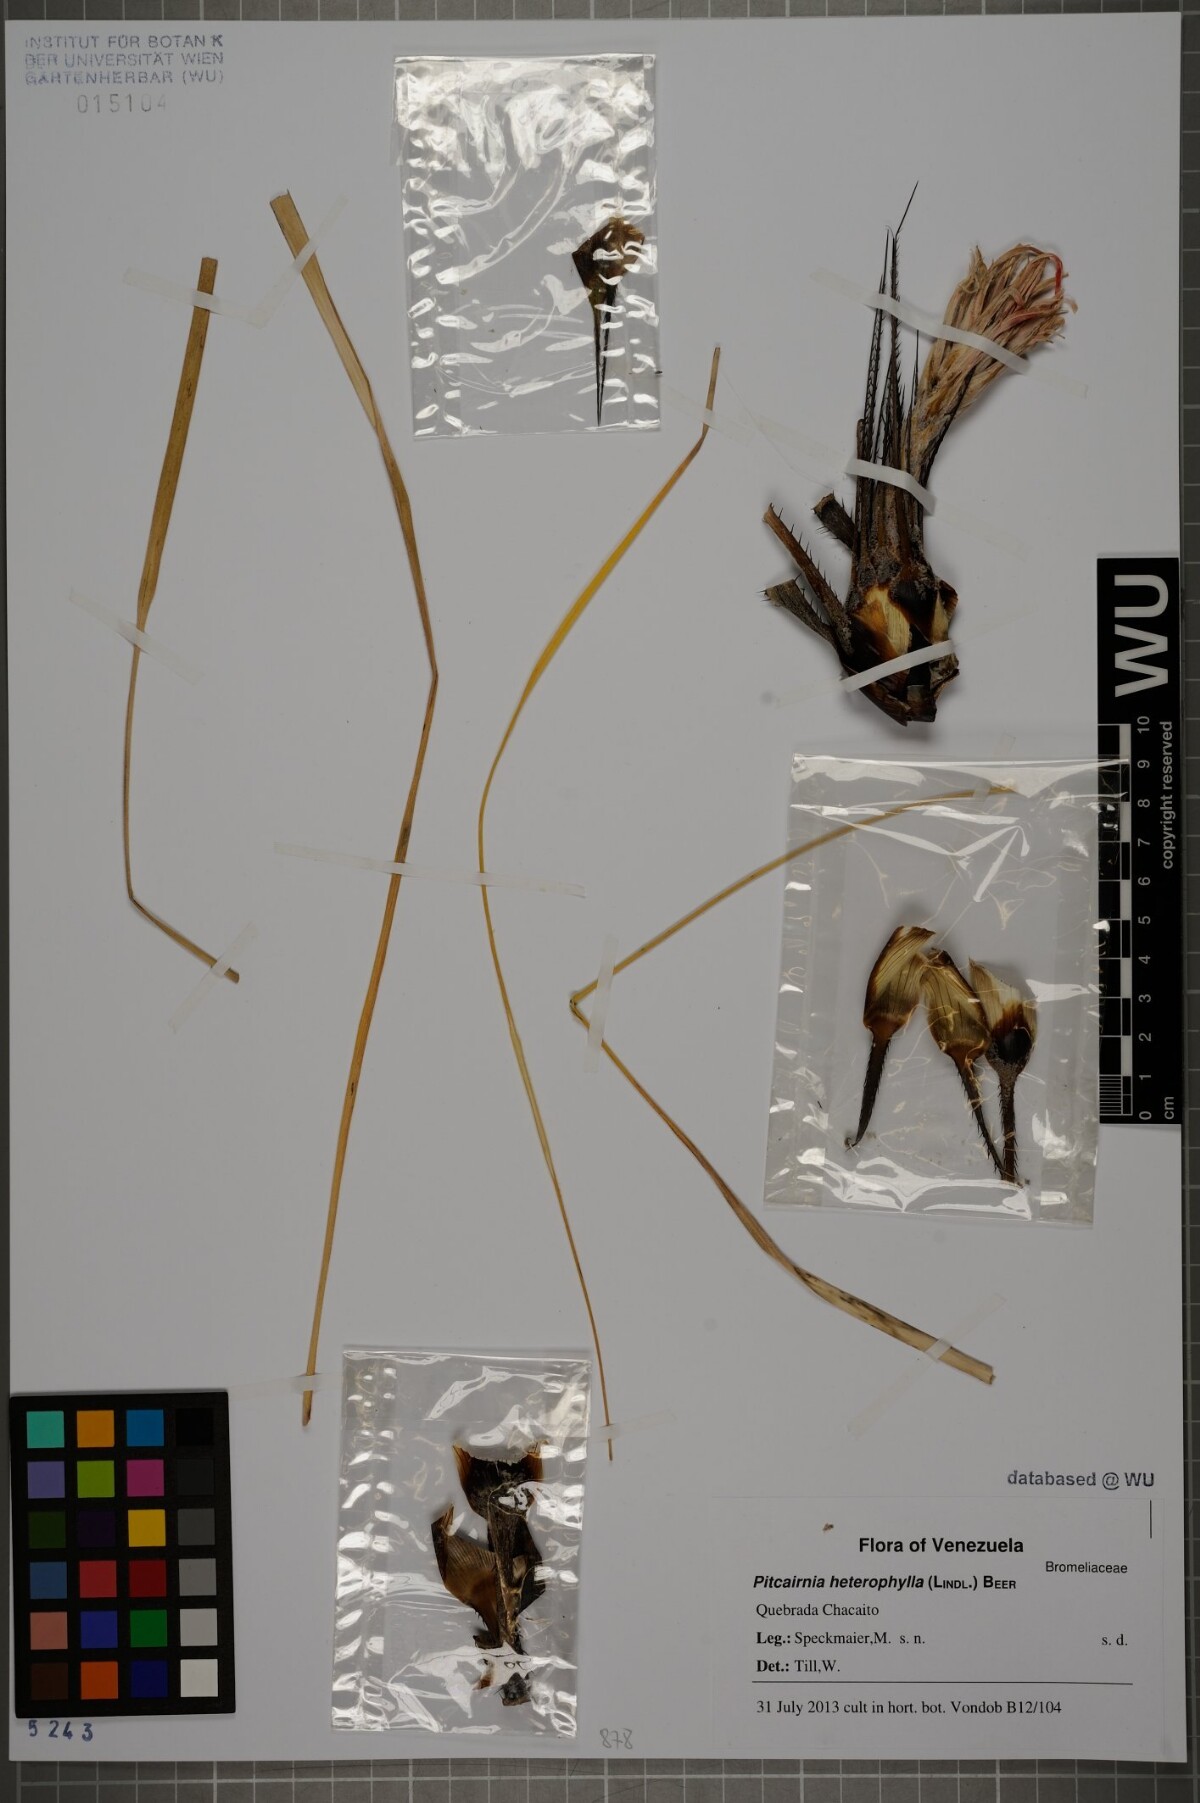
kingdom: Plantae
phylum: Tracheophyta
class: Liliopsida
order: Poales
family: Bromeliaceae
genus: Pitcairnia
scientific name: Pitcairnia heterophylla
